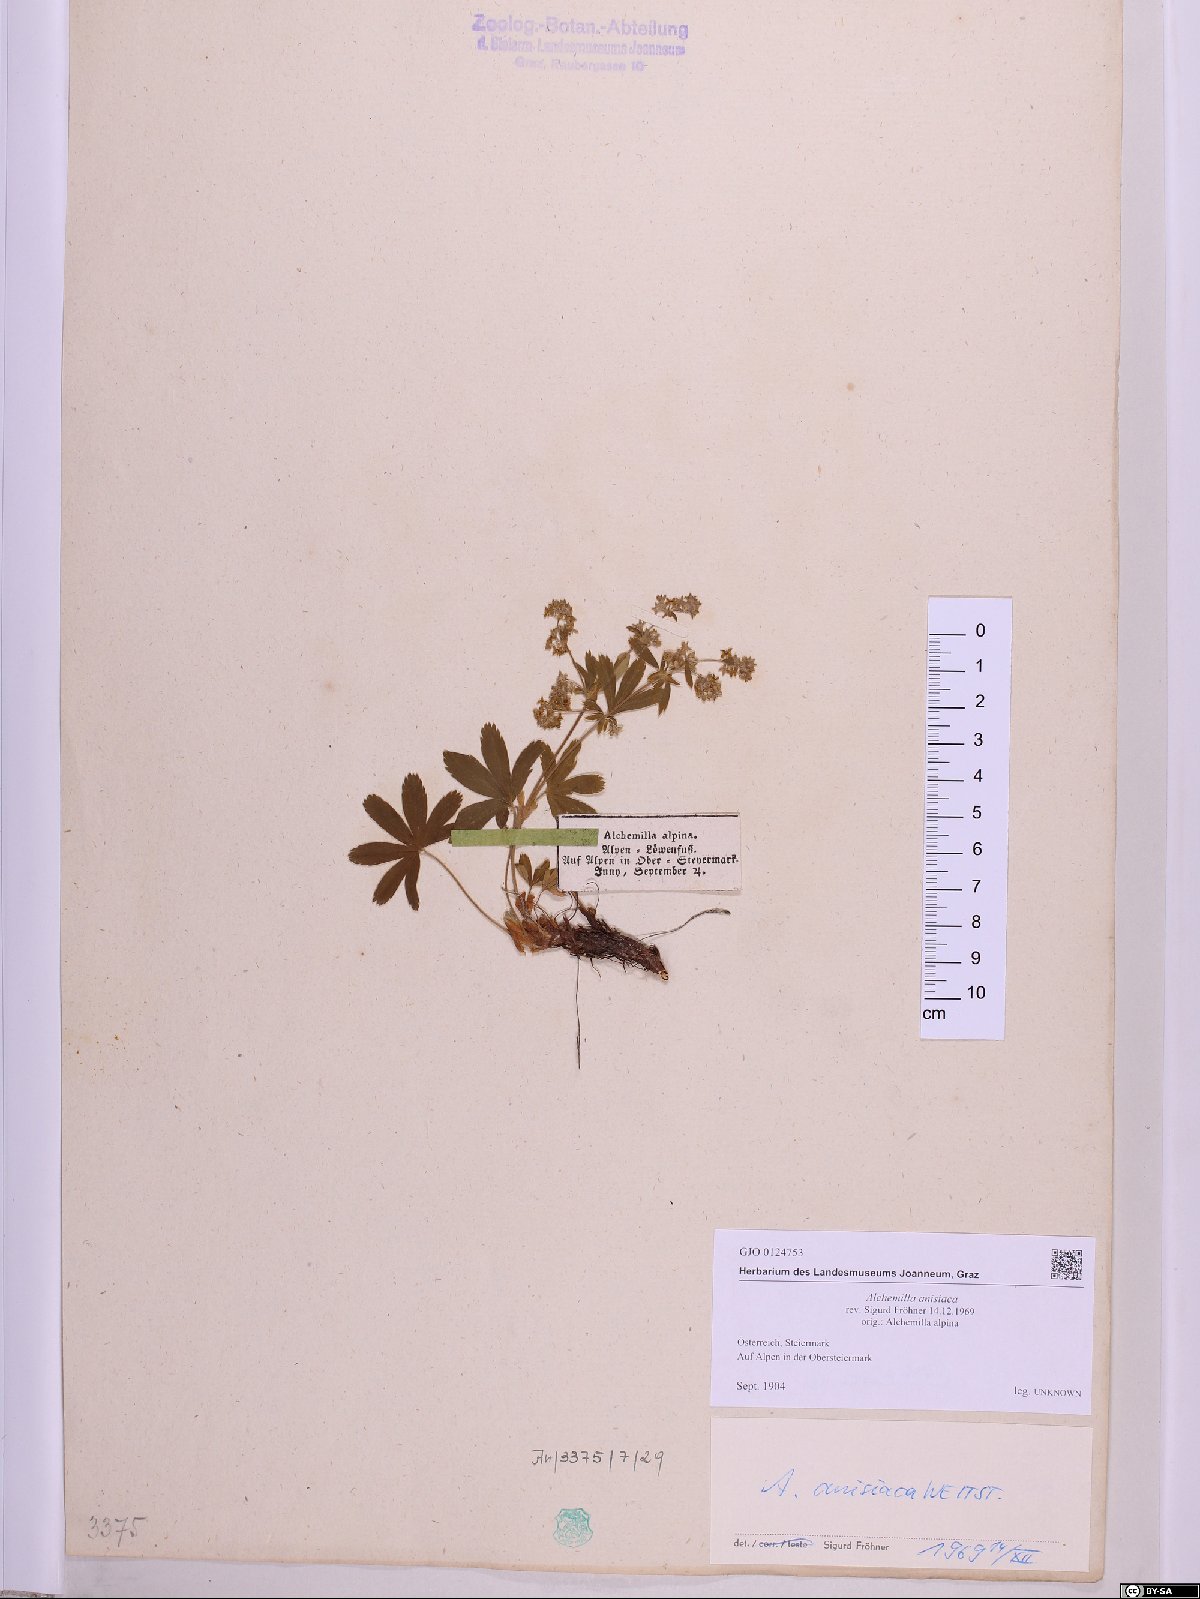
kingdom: Plantae
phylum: Tracheophyta
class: Magnoliopsida
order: Rosales
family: Rosaceae
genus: Alchemilla
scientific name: Alchemilla anisiaca
